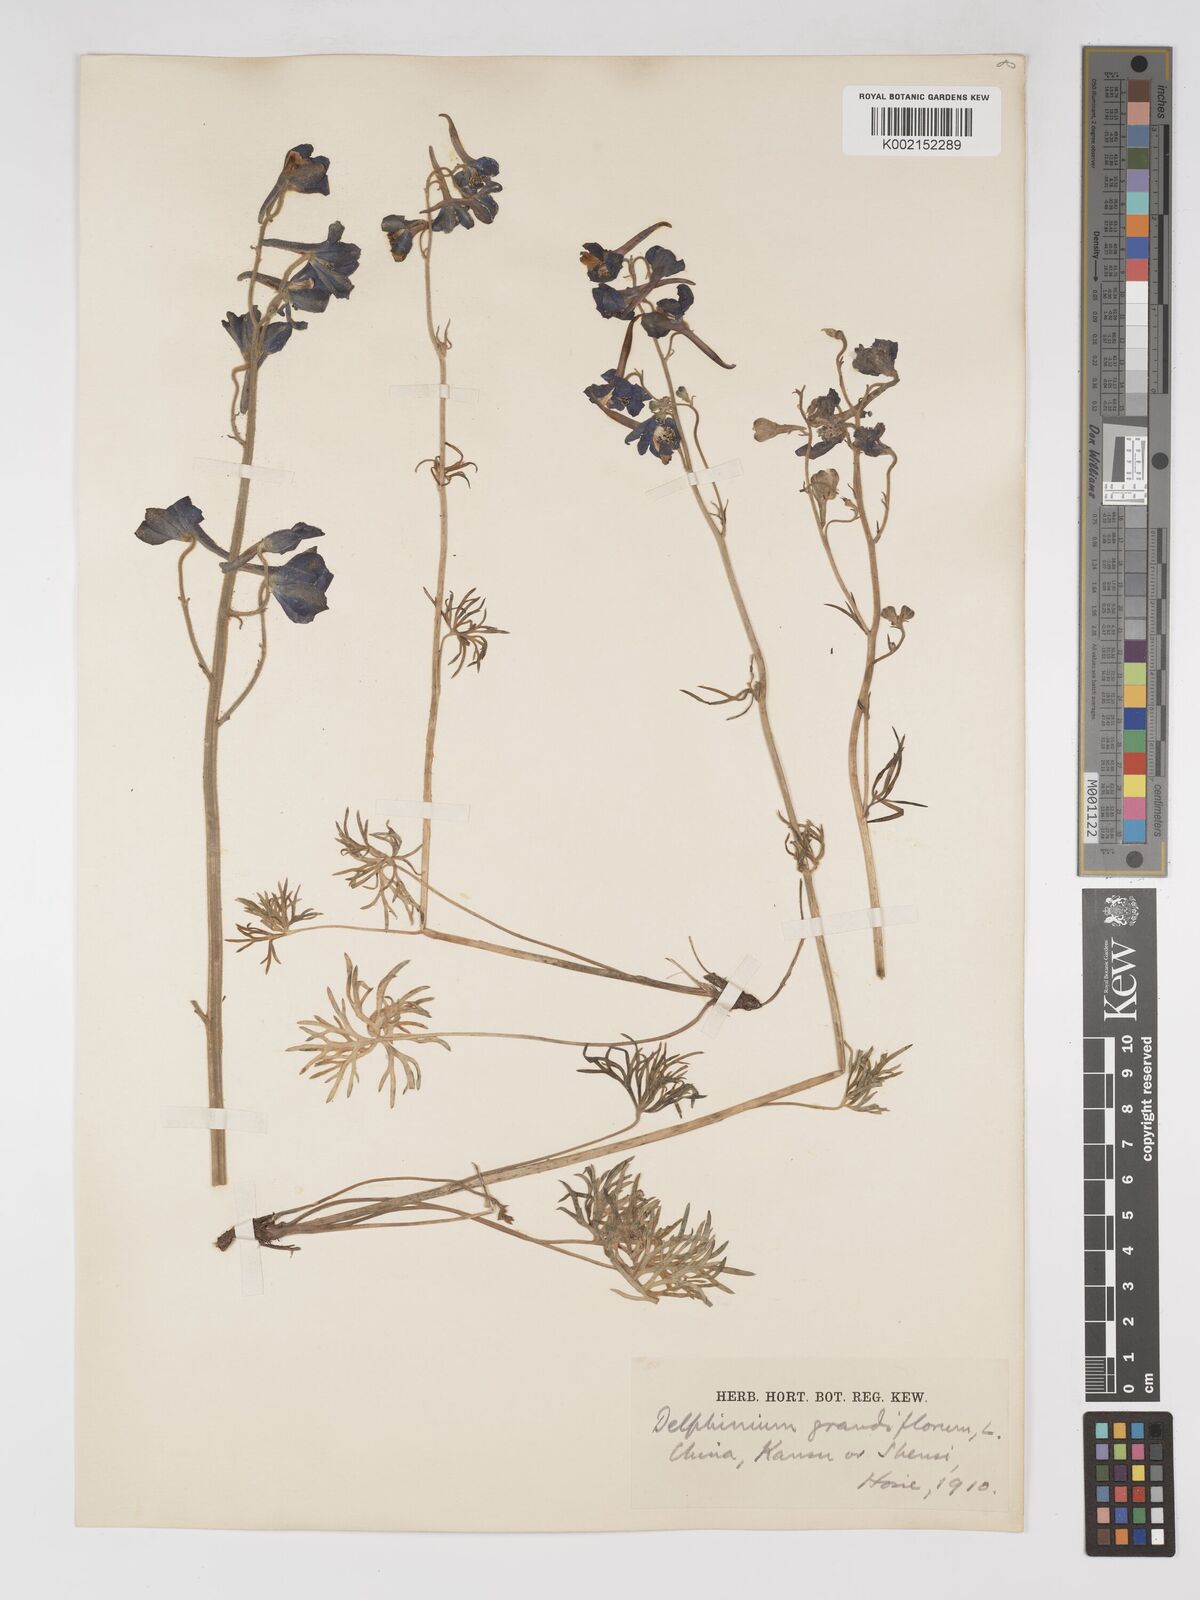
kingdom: Plantae
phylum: Tracheophyta
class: Magnoliopsida
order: Ranunculales
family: Ranunculaceae
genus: Delphinium
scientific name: Delphinium grandiflorum
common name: Siberian larkspur
